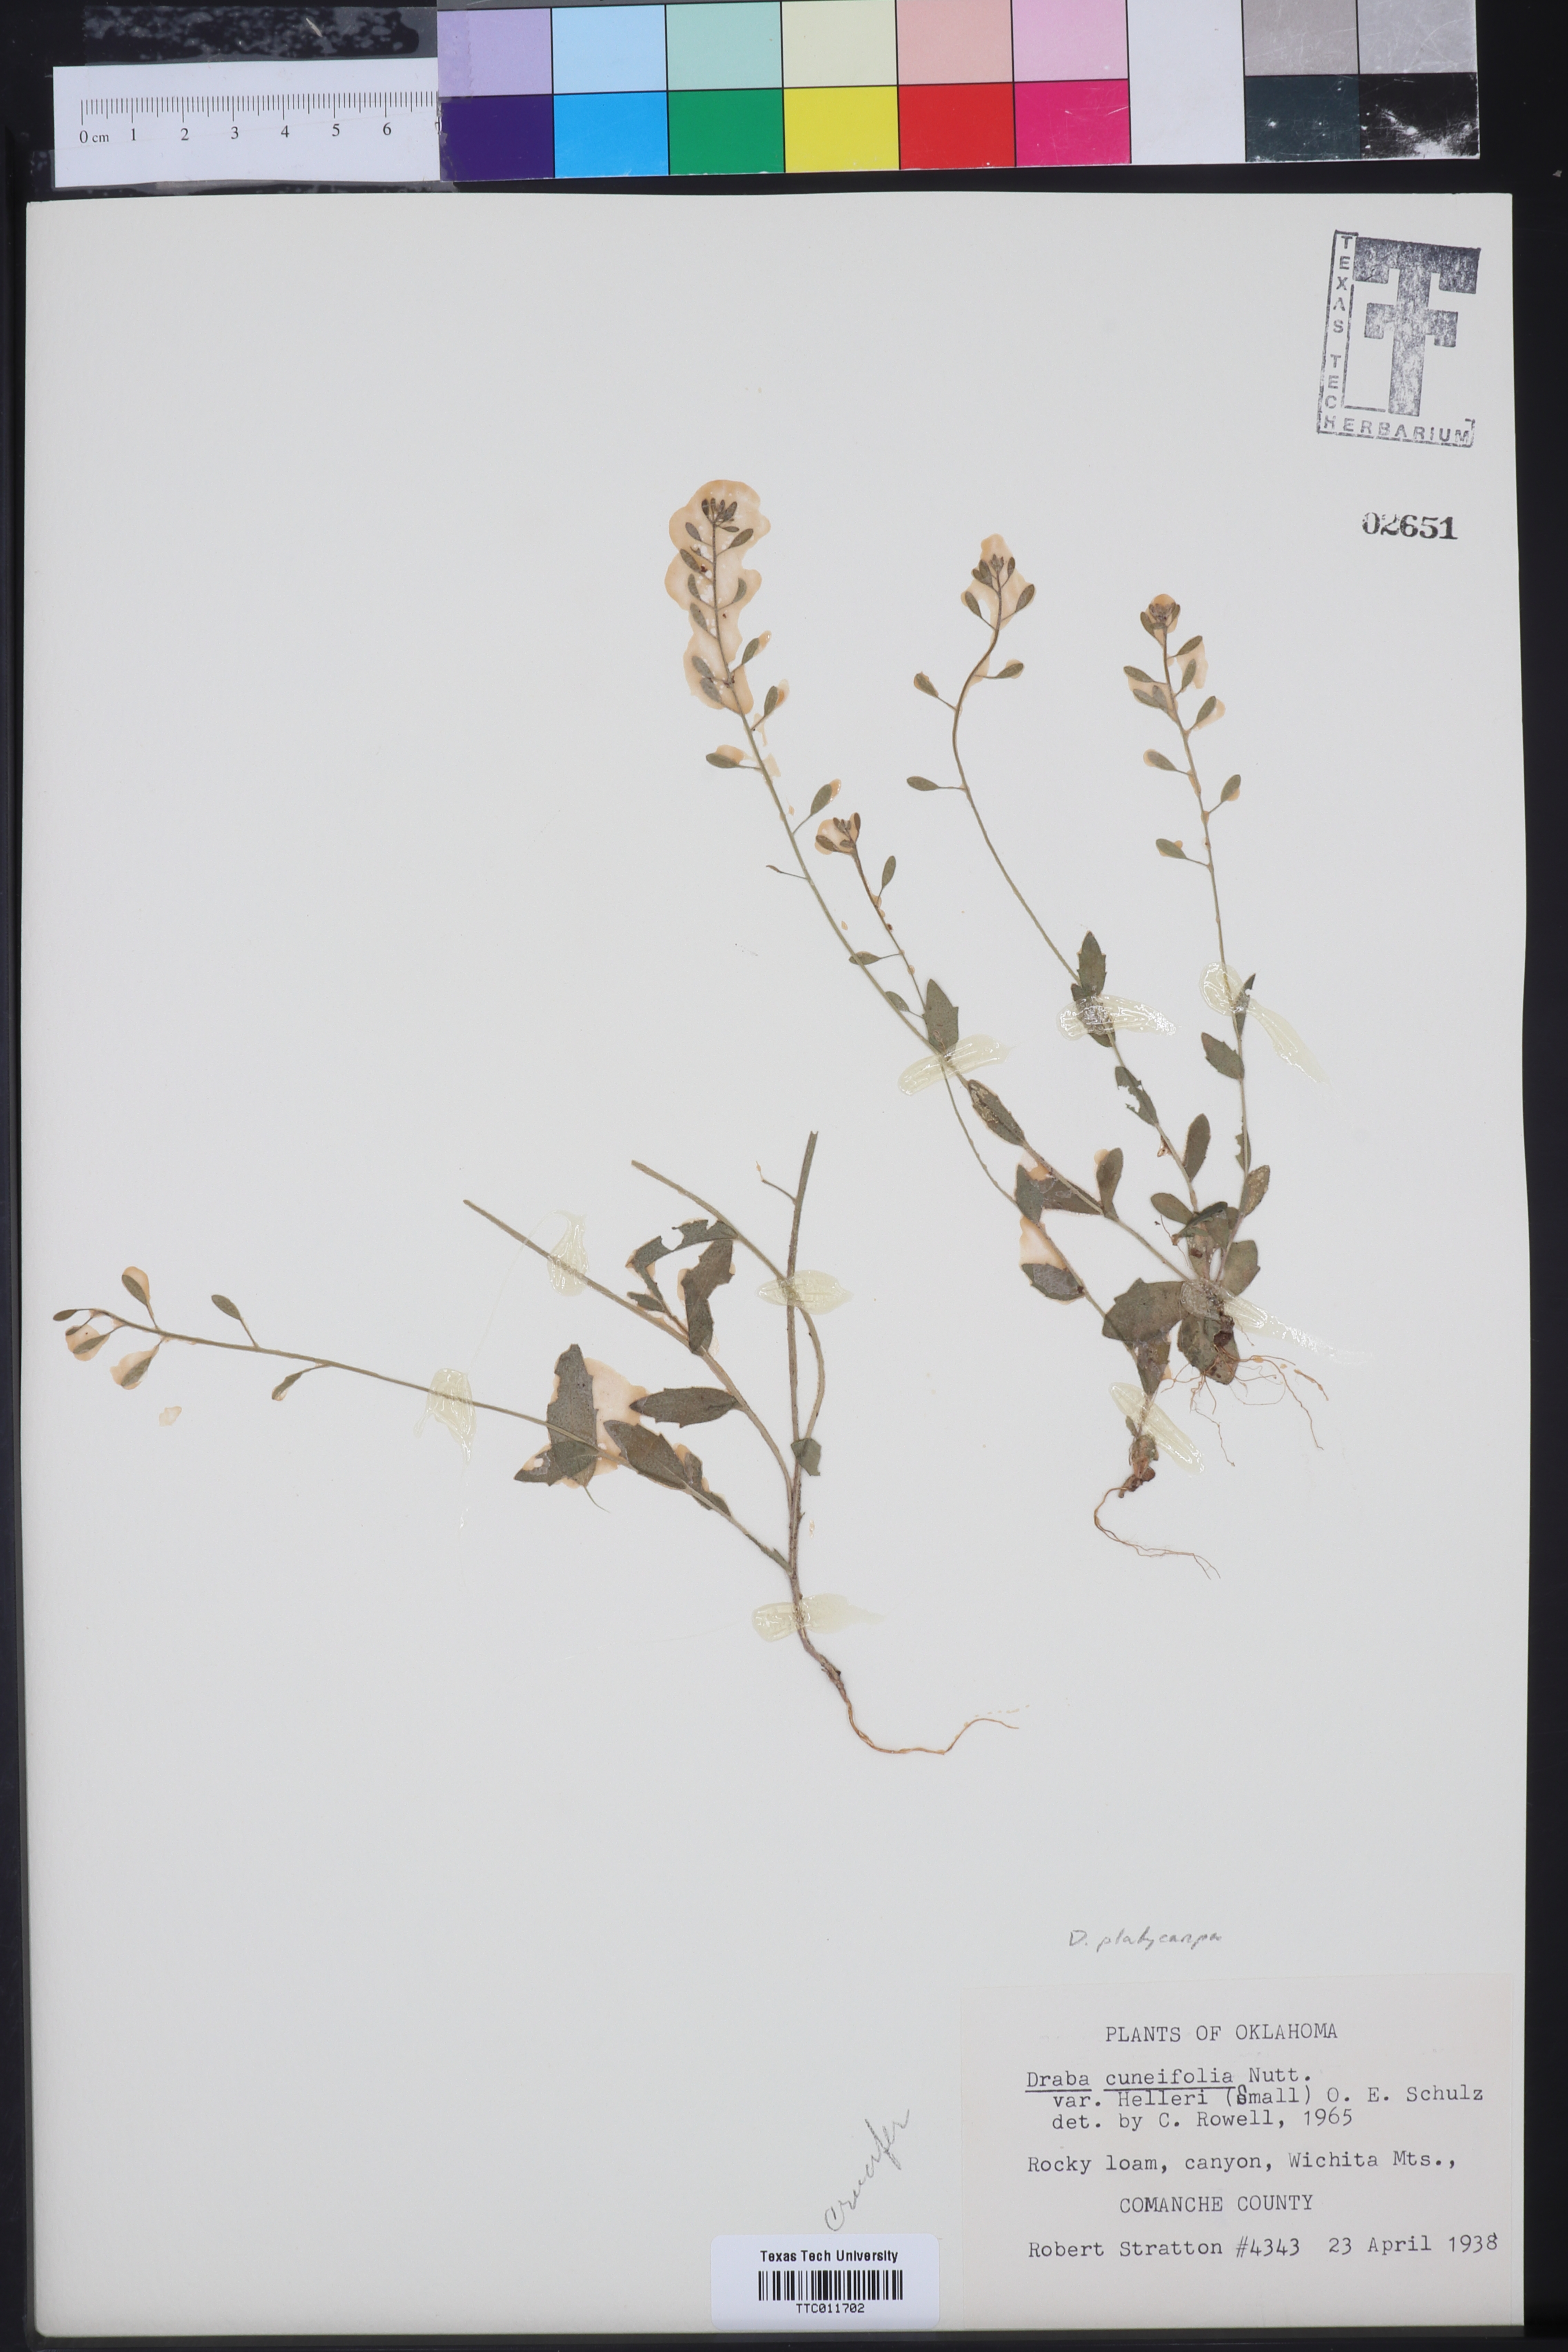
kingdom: Plantae
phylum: Tracheophyta
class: Magnoliopsida
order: Brassicales
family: Brassicaceae
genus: Tomostima
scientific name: Tomostima platycarpa
